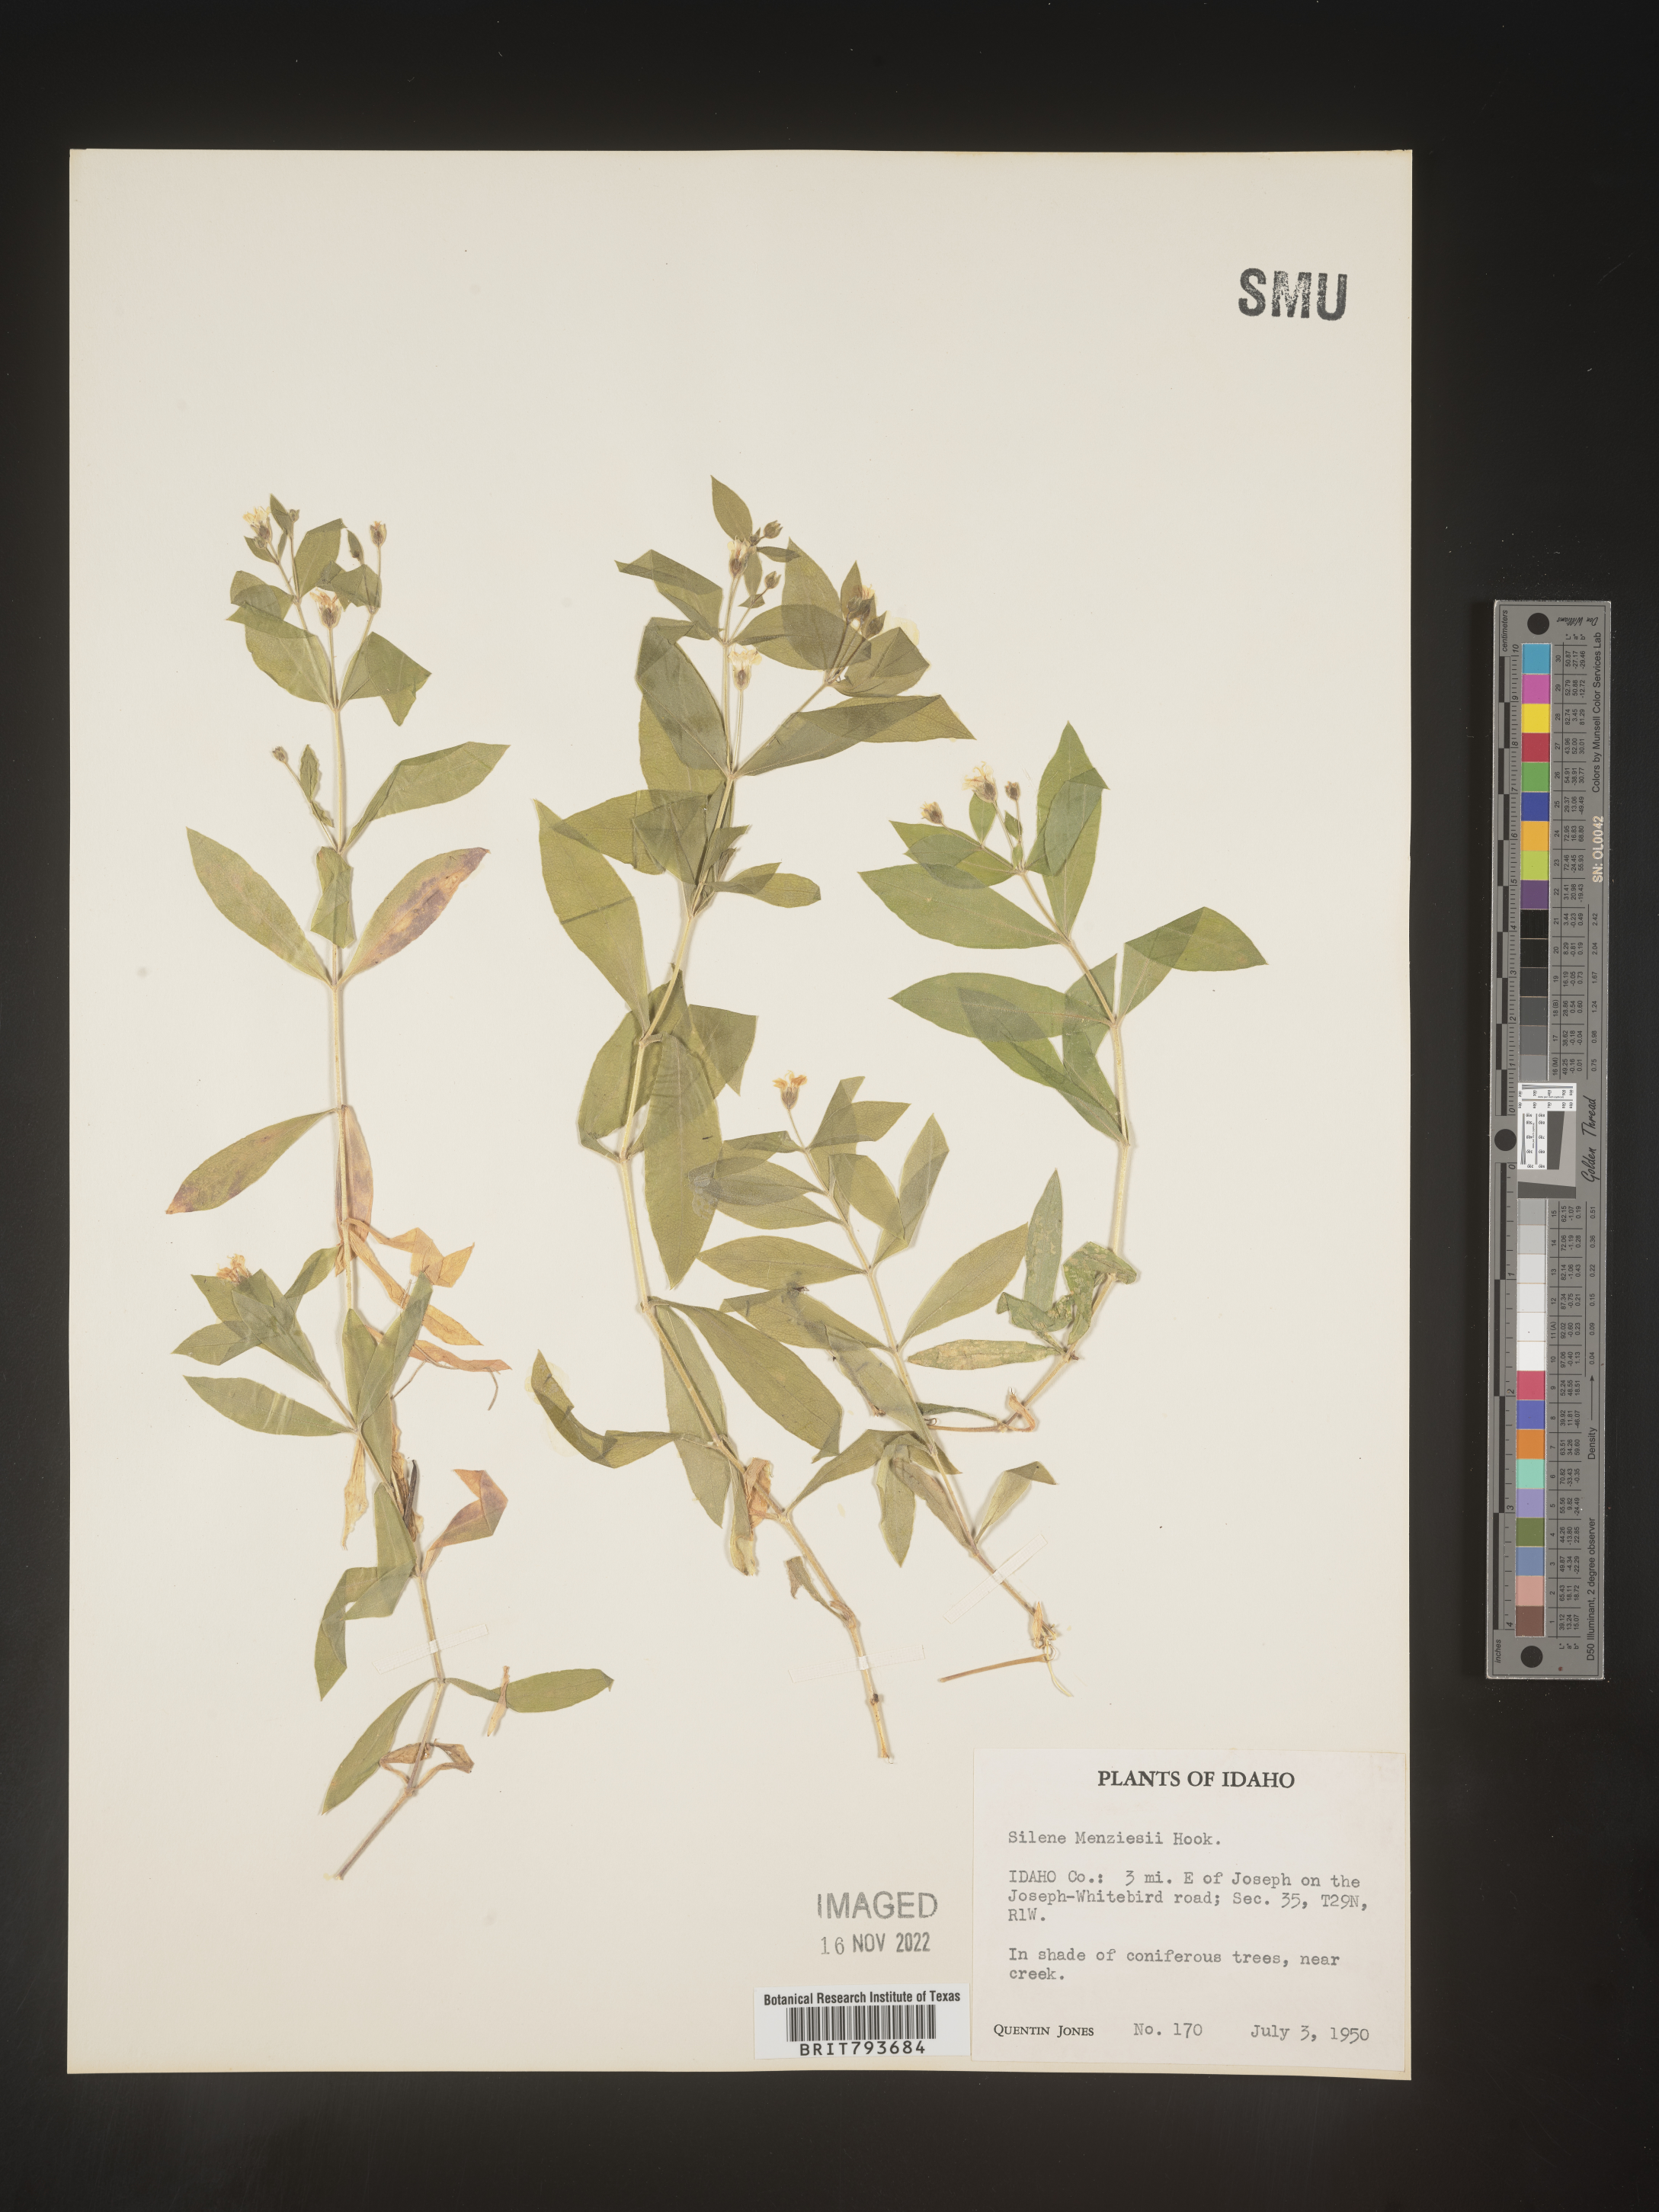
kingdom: Plantae
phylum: Tracheophyta
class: Magnoliopsida
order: Caryophyllales
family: Caryophyllaceae
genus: Silene
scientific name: Silene menziesii
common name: Menzies's catchfly
